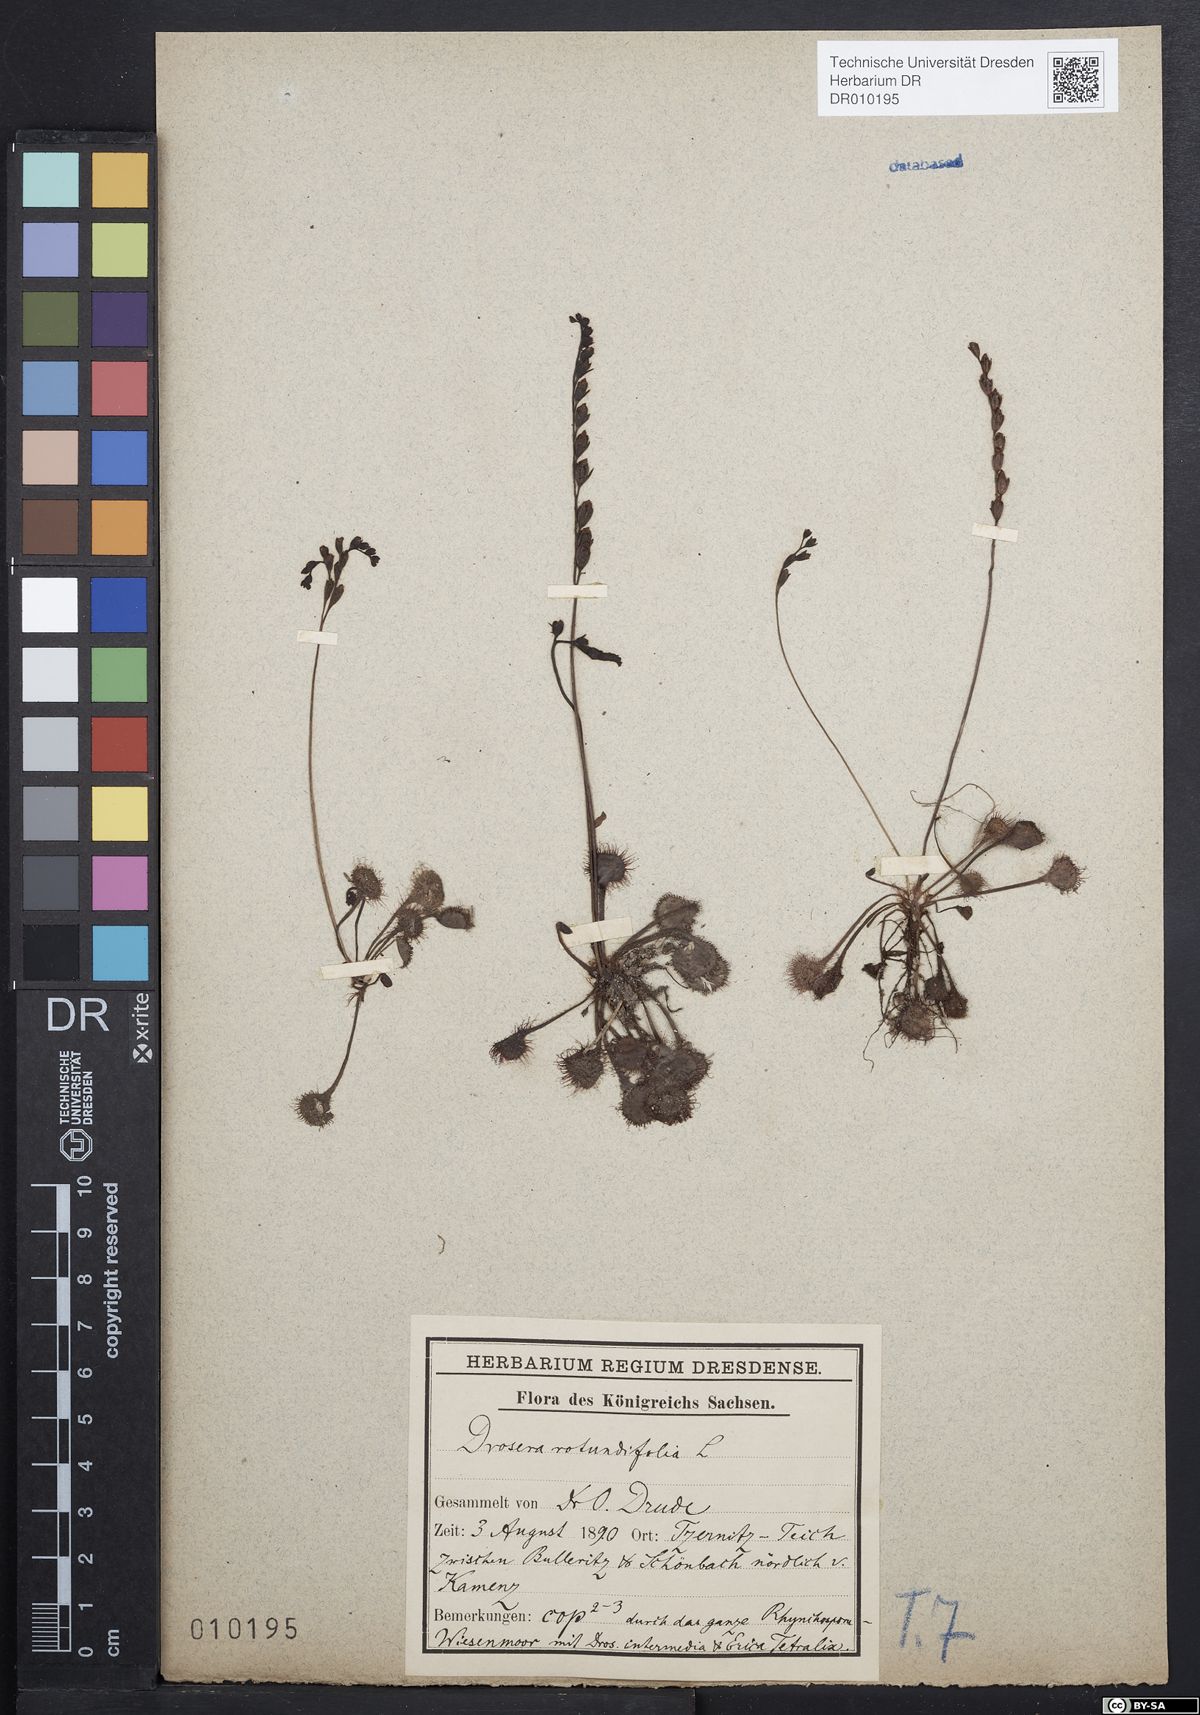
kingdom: Plantae
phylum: Tracheophyta
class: Magnoliopsida
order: Caryophyllales
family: Droseraceae
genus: Drosera
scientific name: Drosera rotundifolia
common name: Round-leaved sundew
